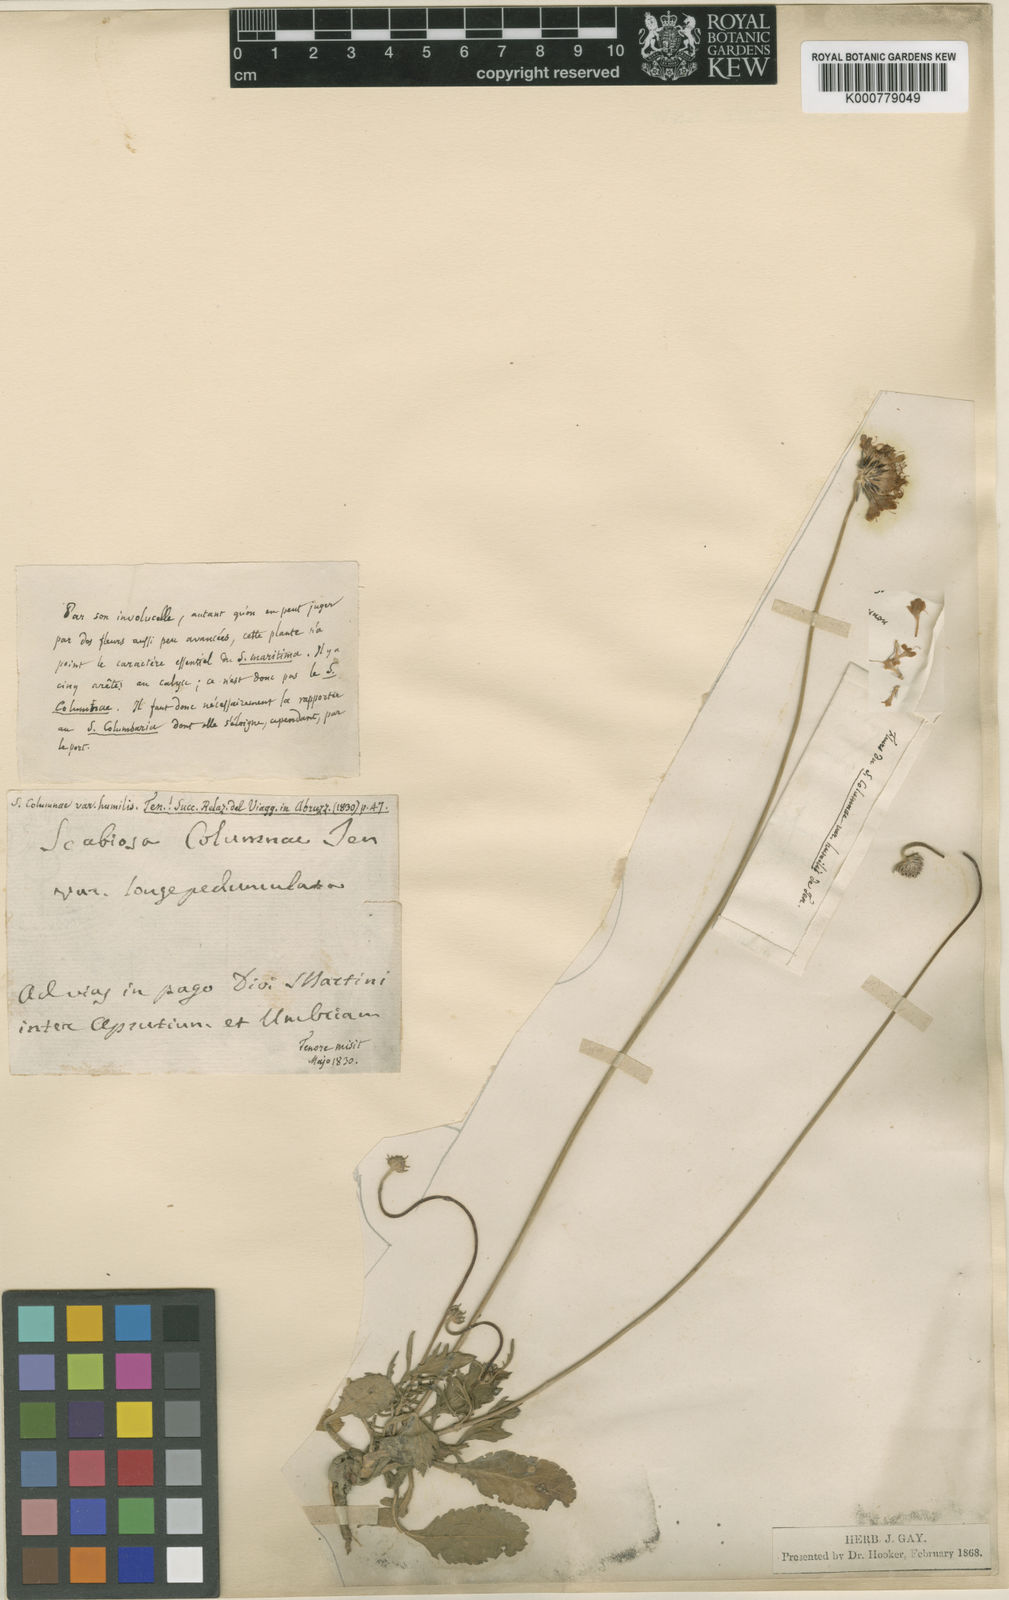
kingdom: Plantae
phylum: Tracheophyta
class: Magnoliopsida
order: Dipsacales
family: Caprifoliaceae
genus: Scabiosa
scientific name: Scabiosa columbaria
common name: Small scabious
